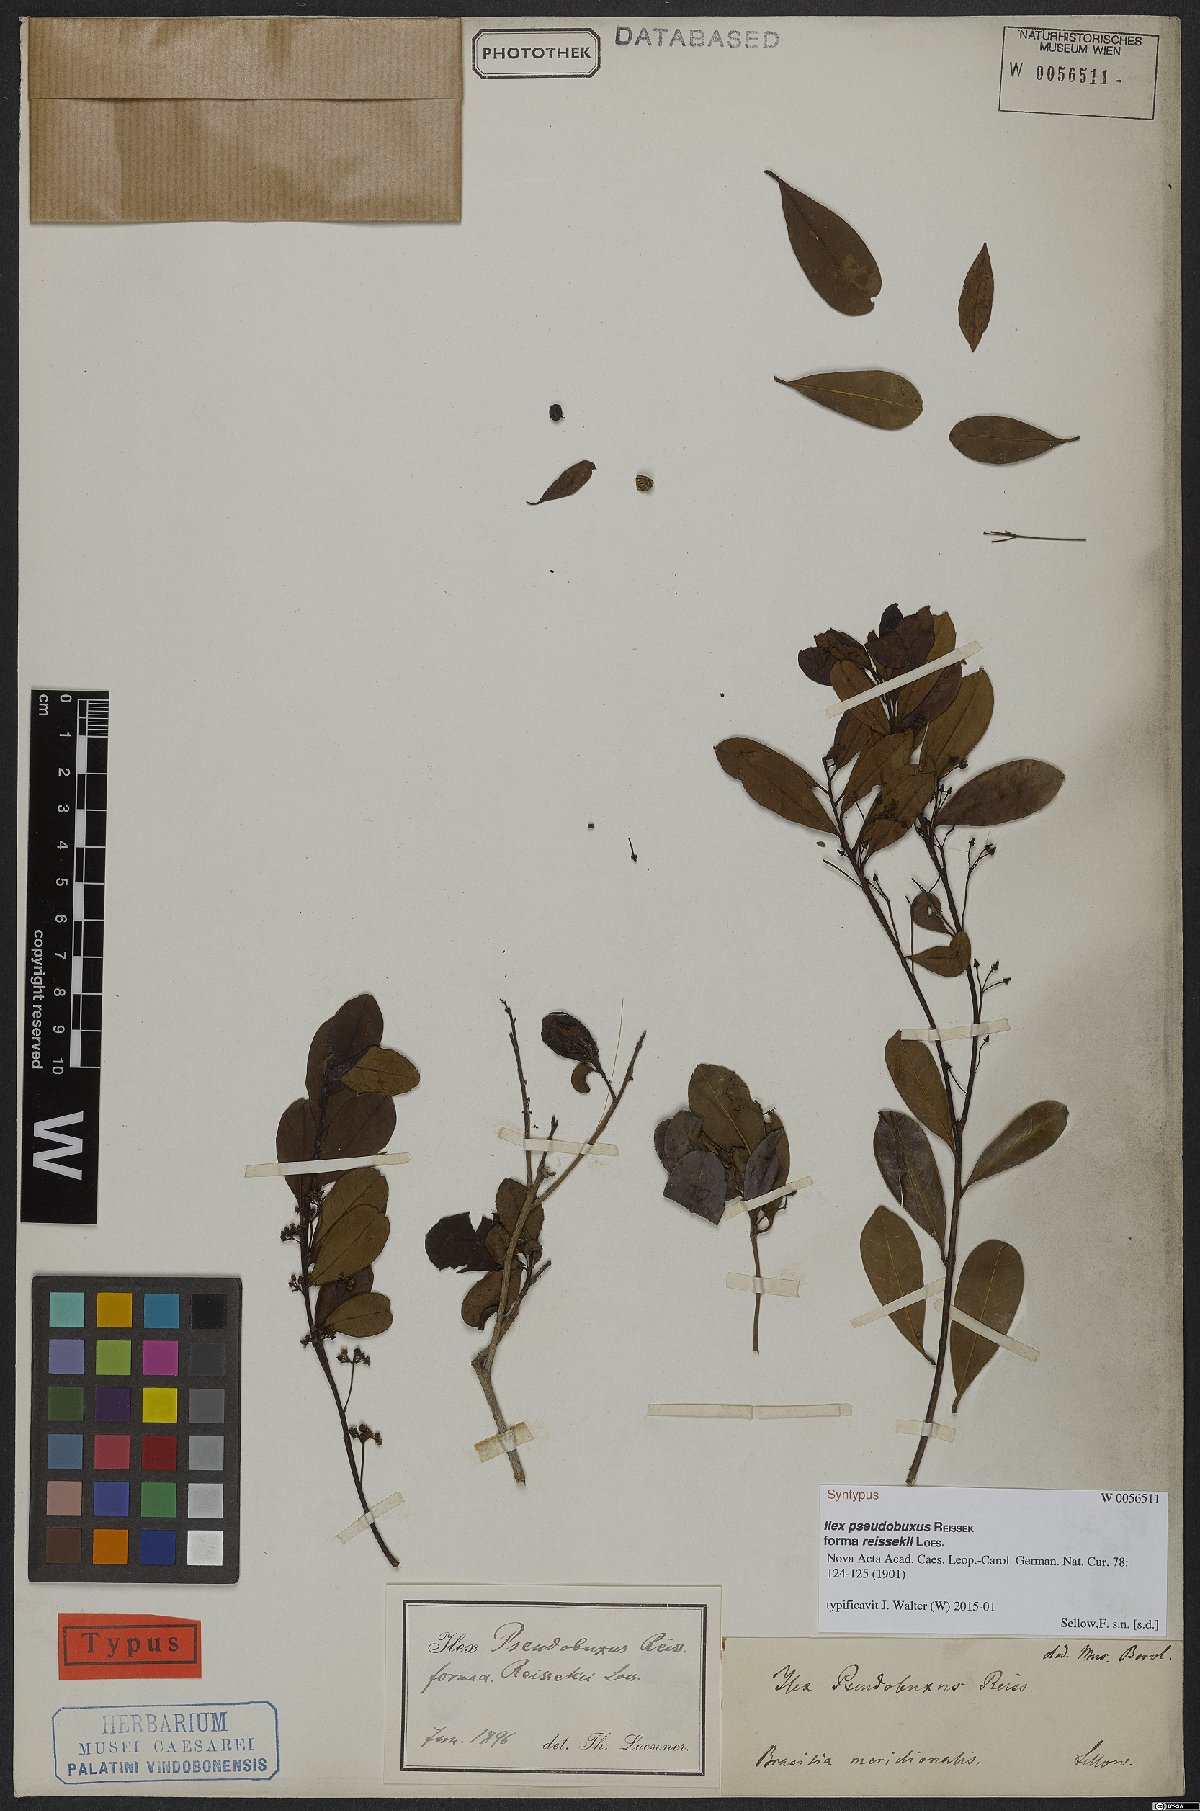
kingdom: Plantae
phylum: Tracheophyta
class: Magnoliopsida
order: Aquifoliales
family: Aquifoliaceae
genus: Ilex
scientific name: Ilex pseudobuxus
